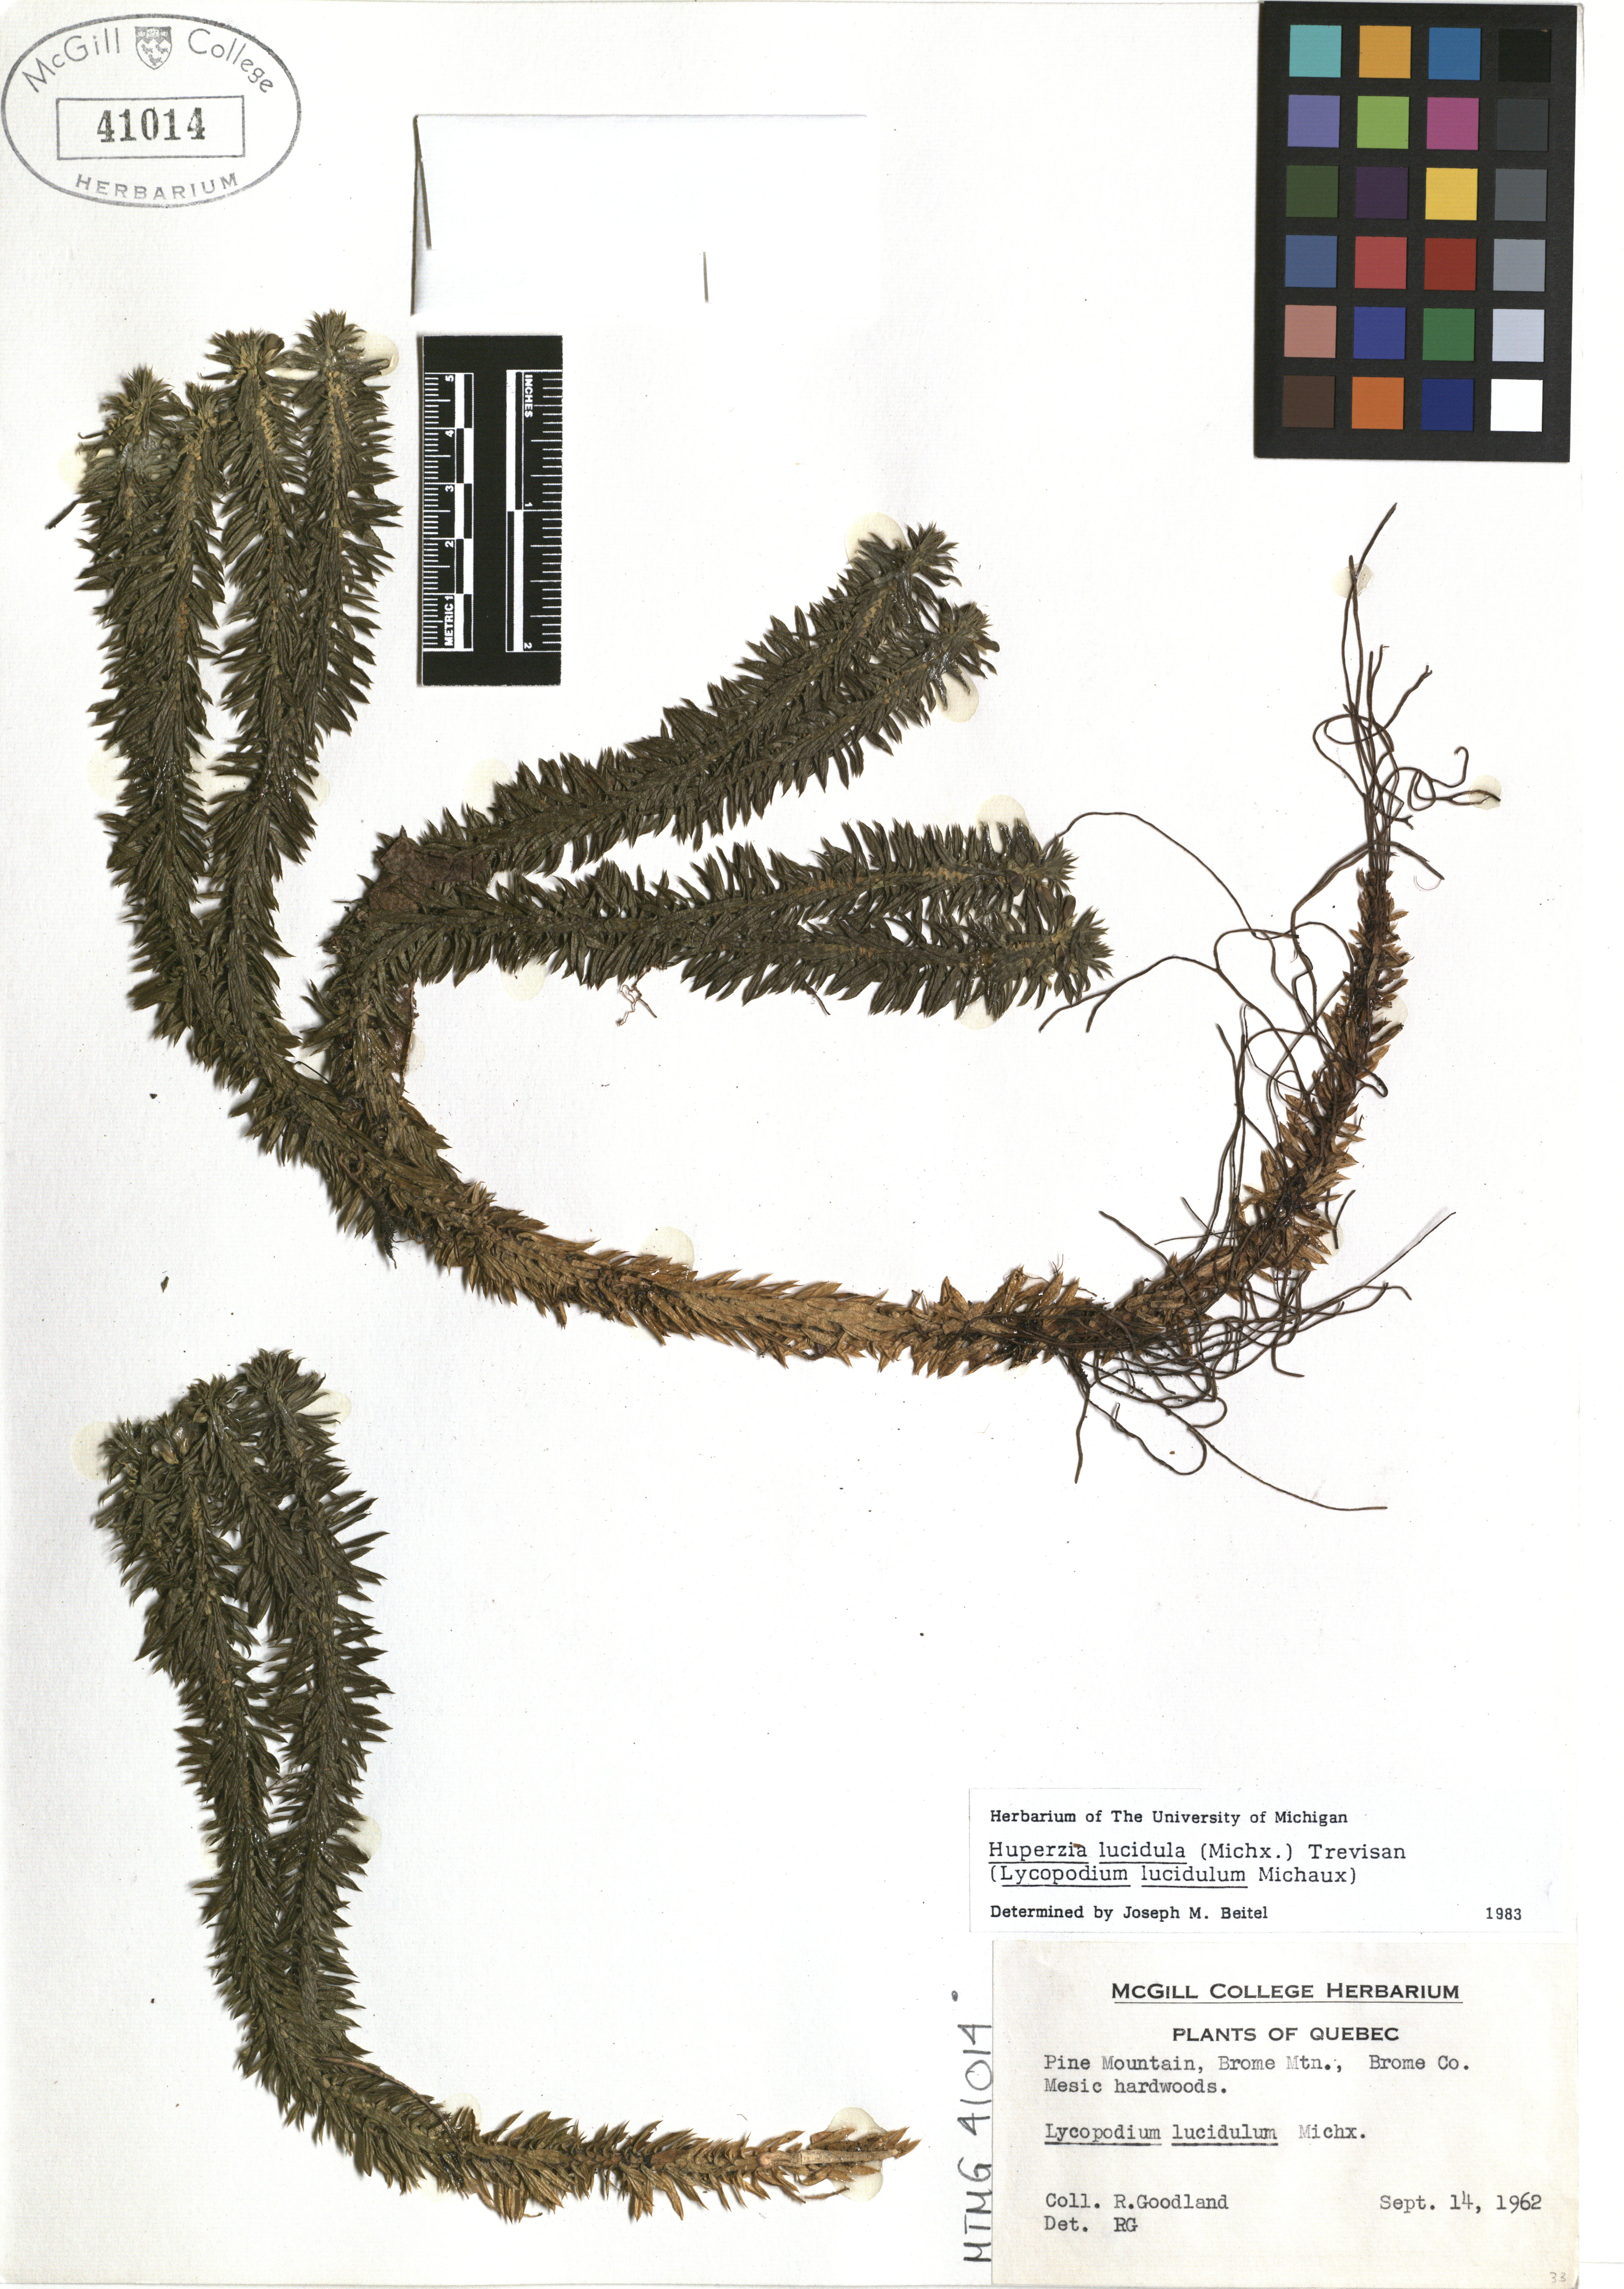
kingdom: Plantae
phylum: Tracheophyta
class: Lycopodiopsida
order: Lycopodiales
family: Lycopodiaceae
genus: Huperzia
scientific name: Huperzia lucidula
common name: Shining clubmoss
